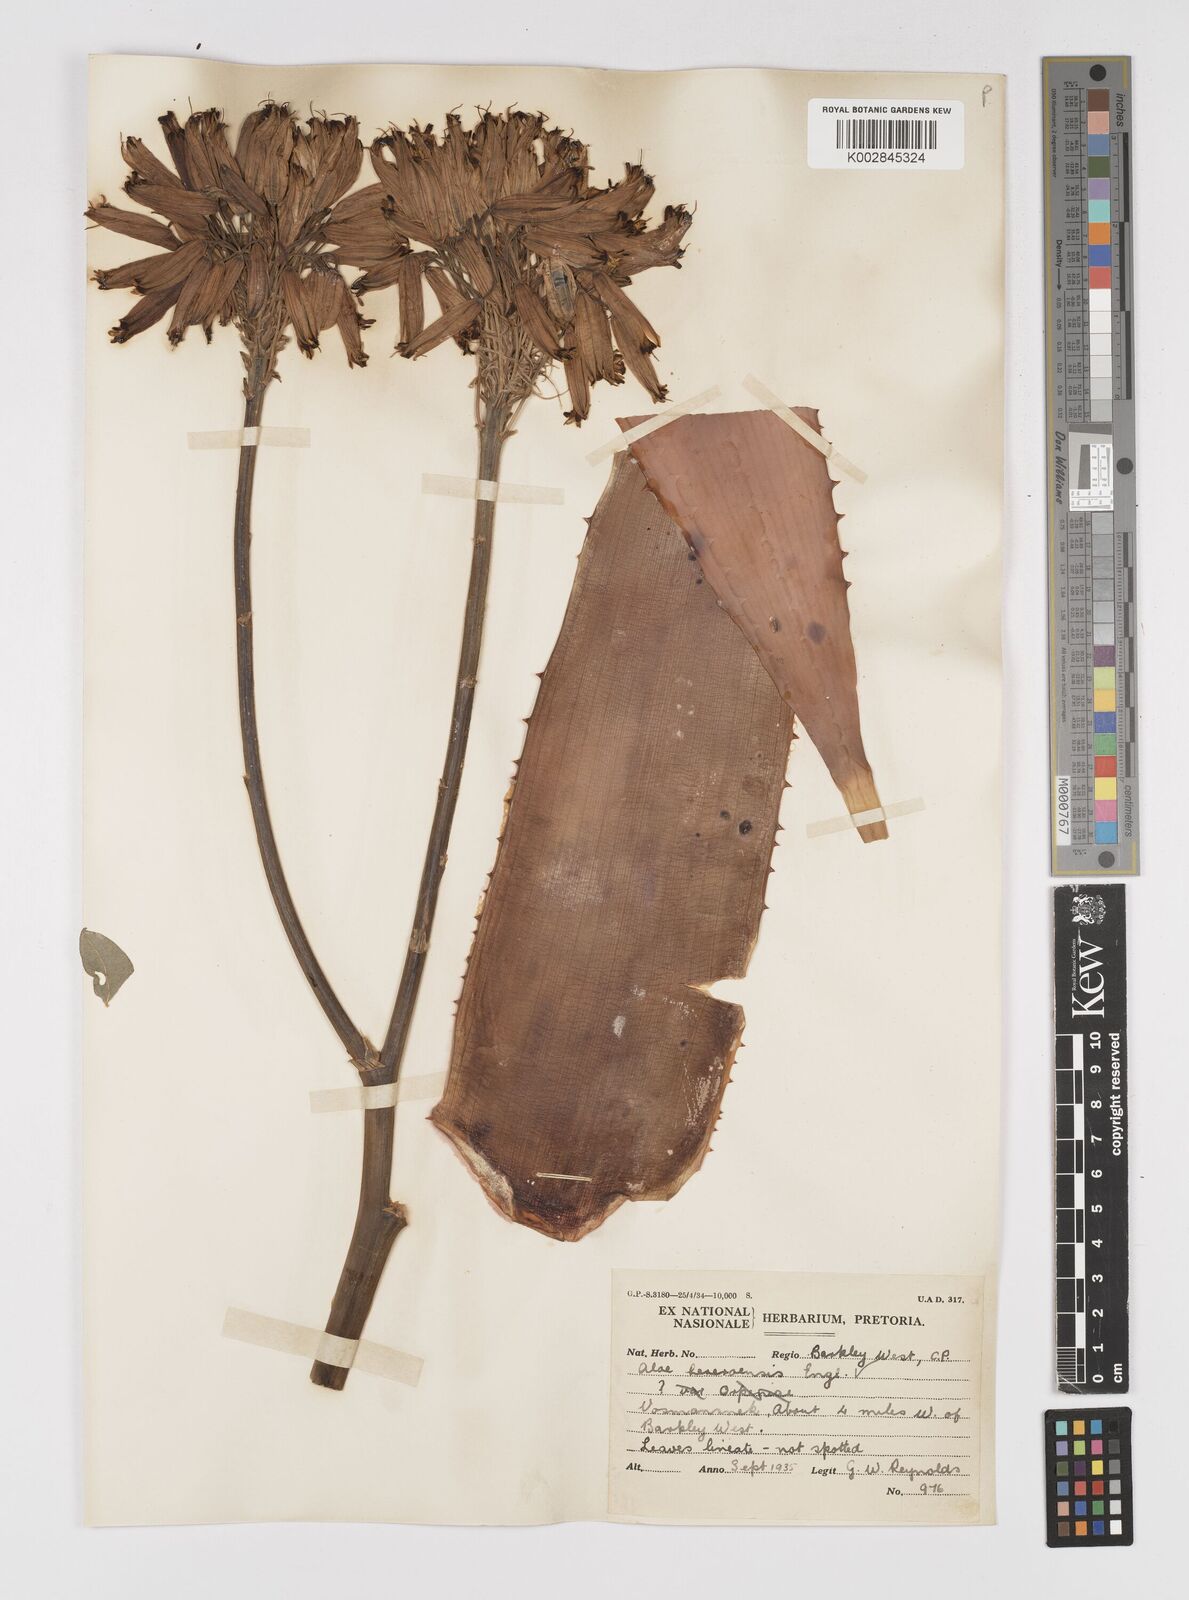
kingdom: Plantae
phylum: Tracheophyta
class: Liliopsida
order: Asparagales
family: Asphodelaceae
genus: Aloe
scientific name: Aloe hereroensis
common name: Herero aloe
